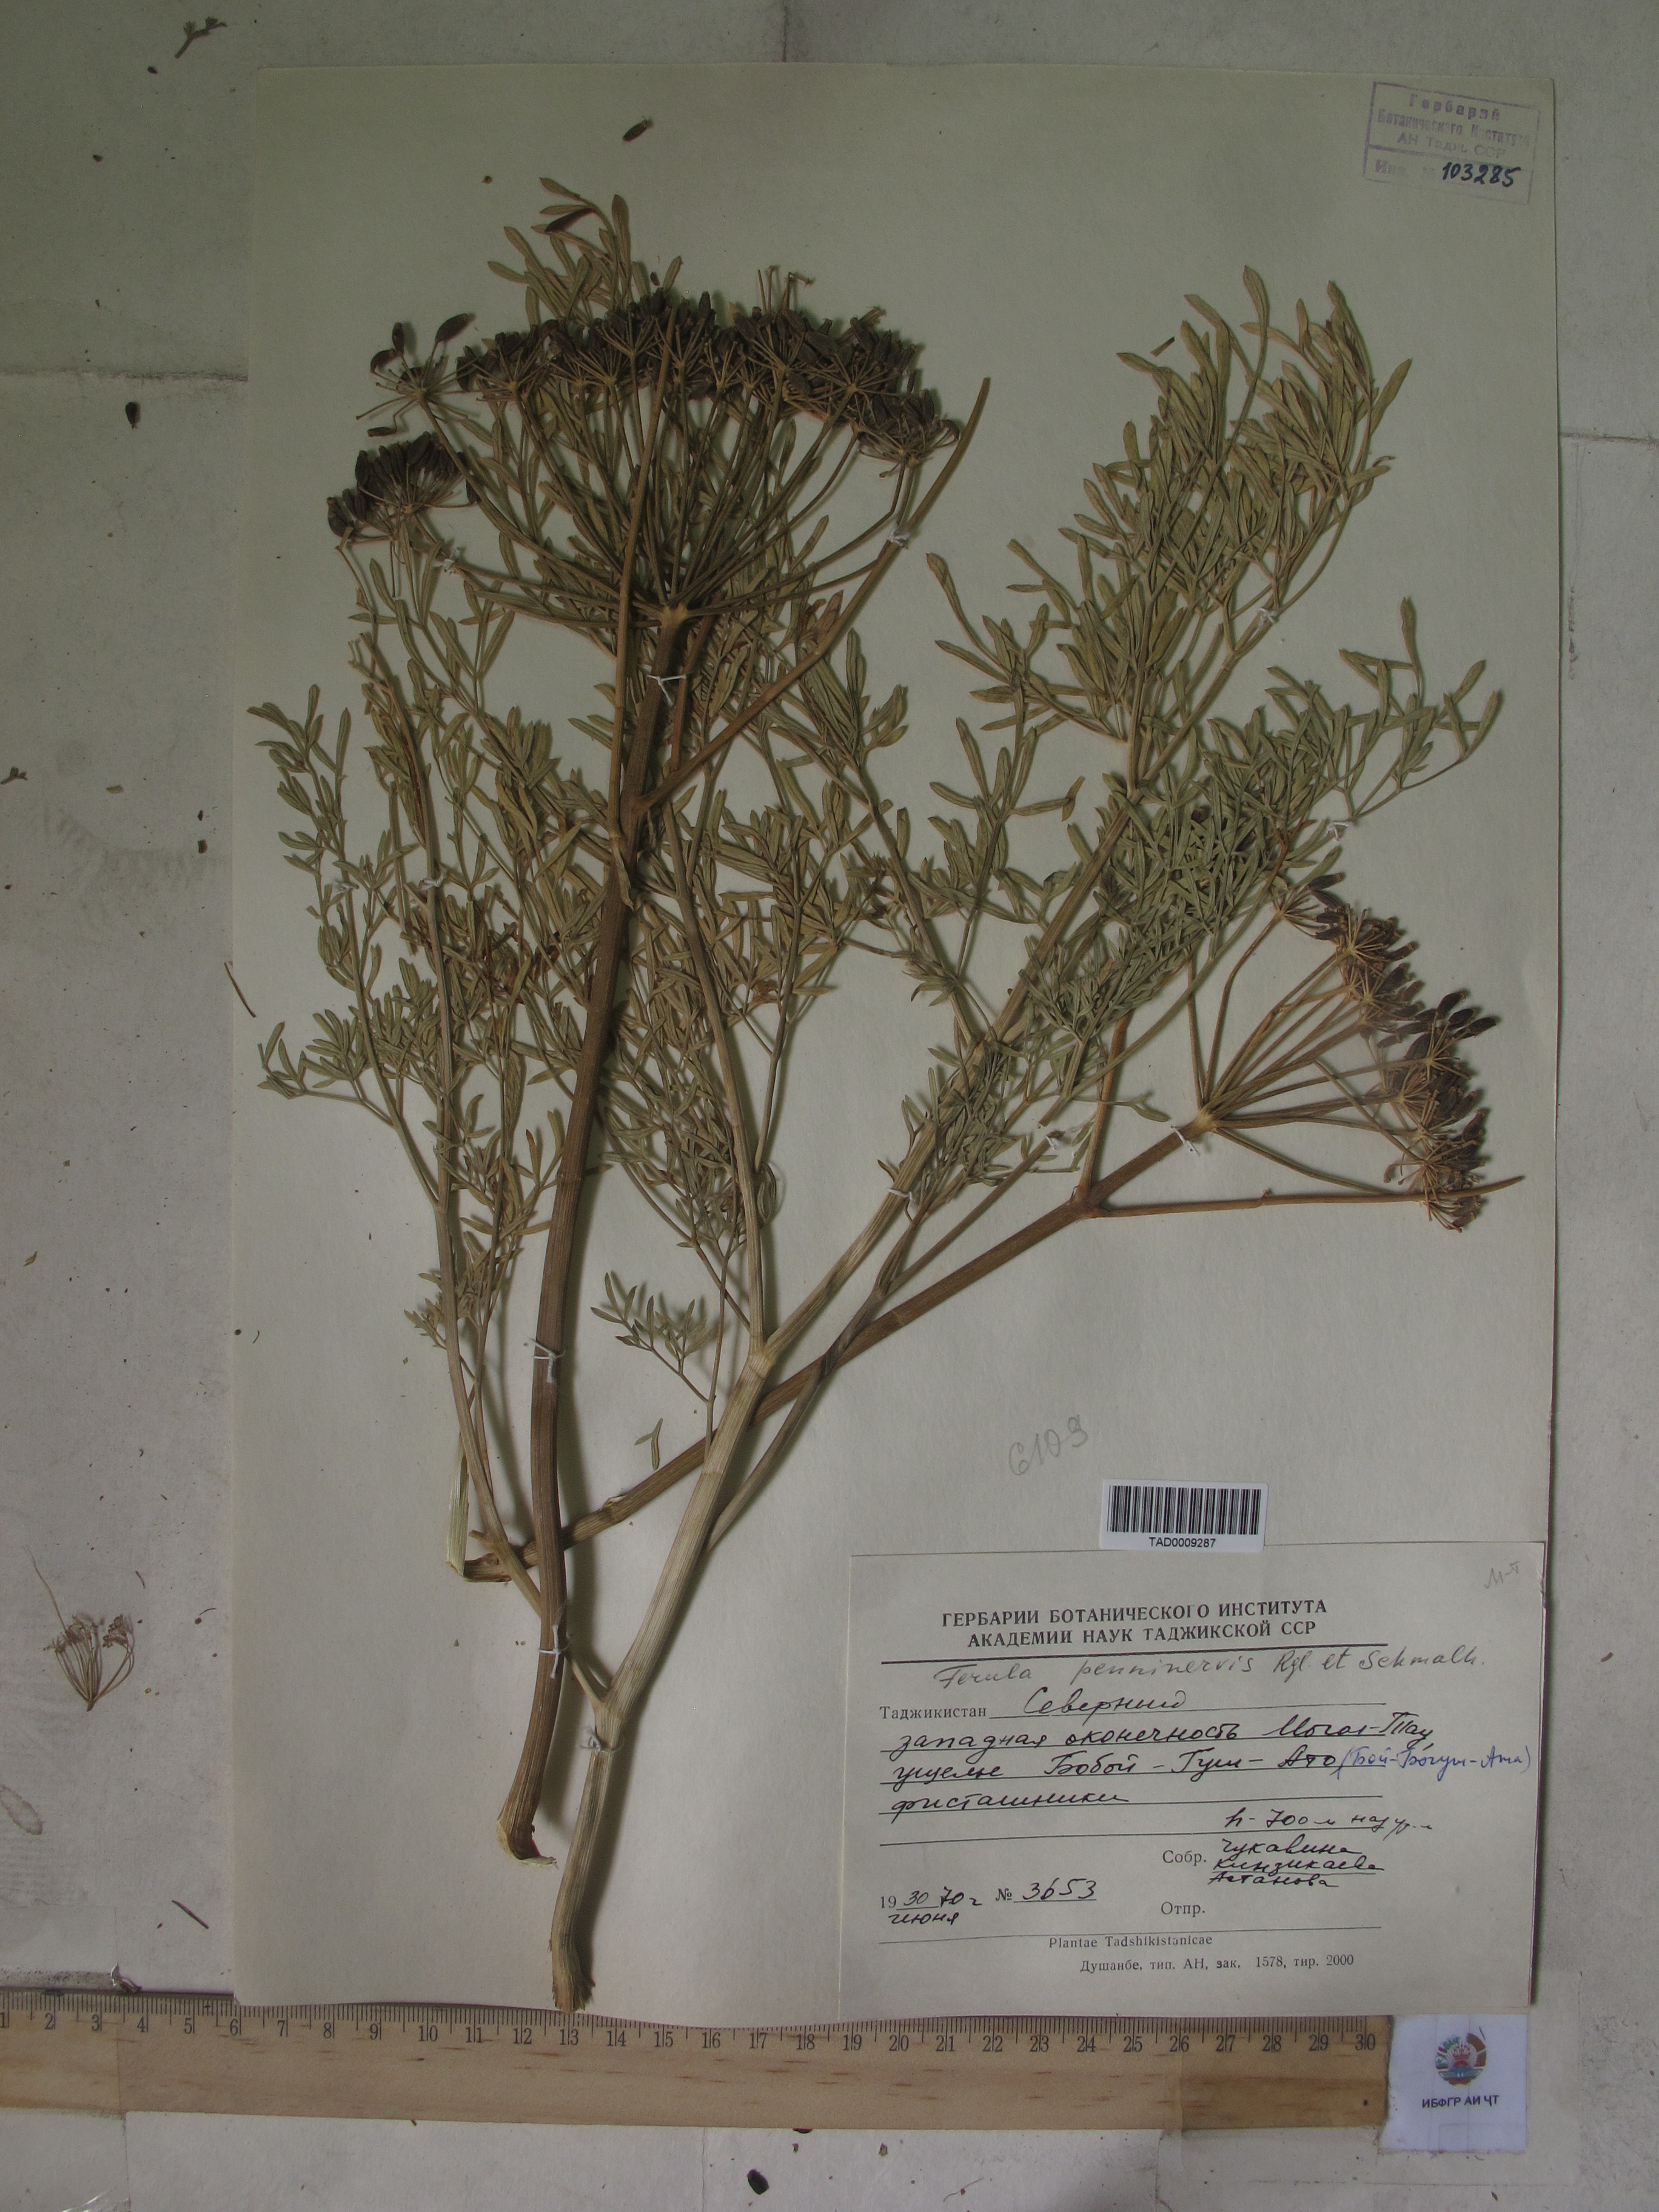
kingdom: Plantae
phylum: Tracheophyta
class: Magnoliopsida
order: Apiales
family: Apiaceae
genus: Ferula
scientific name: Ferula
